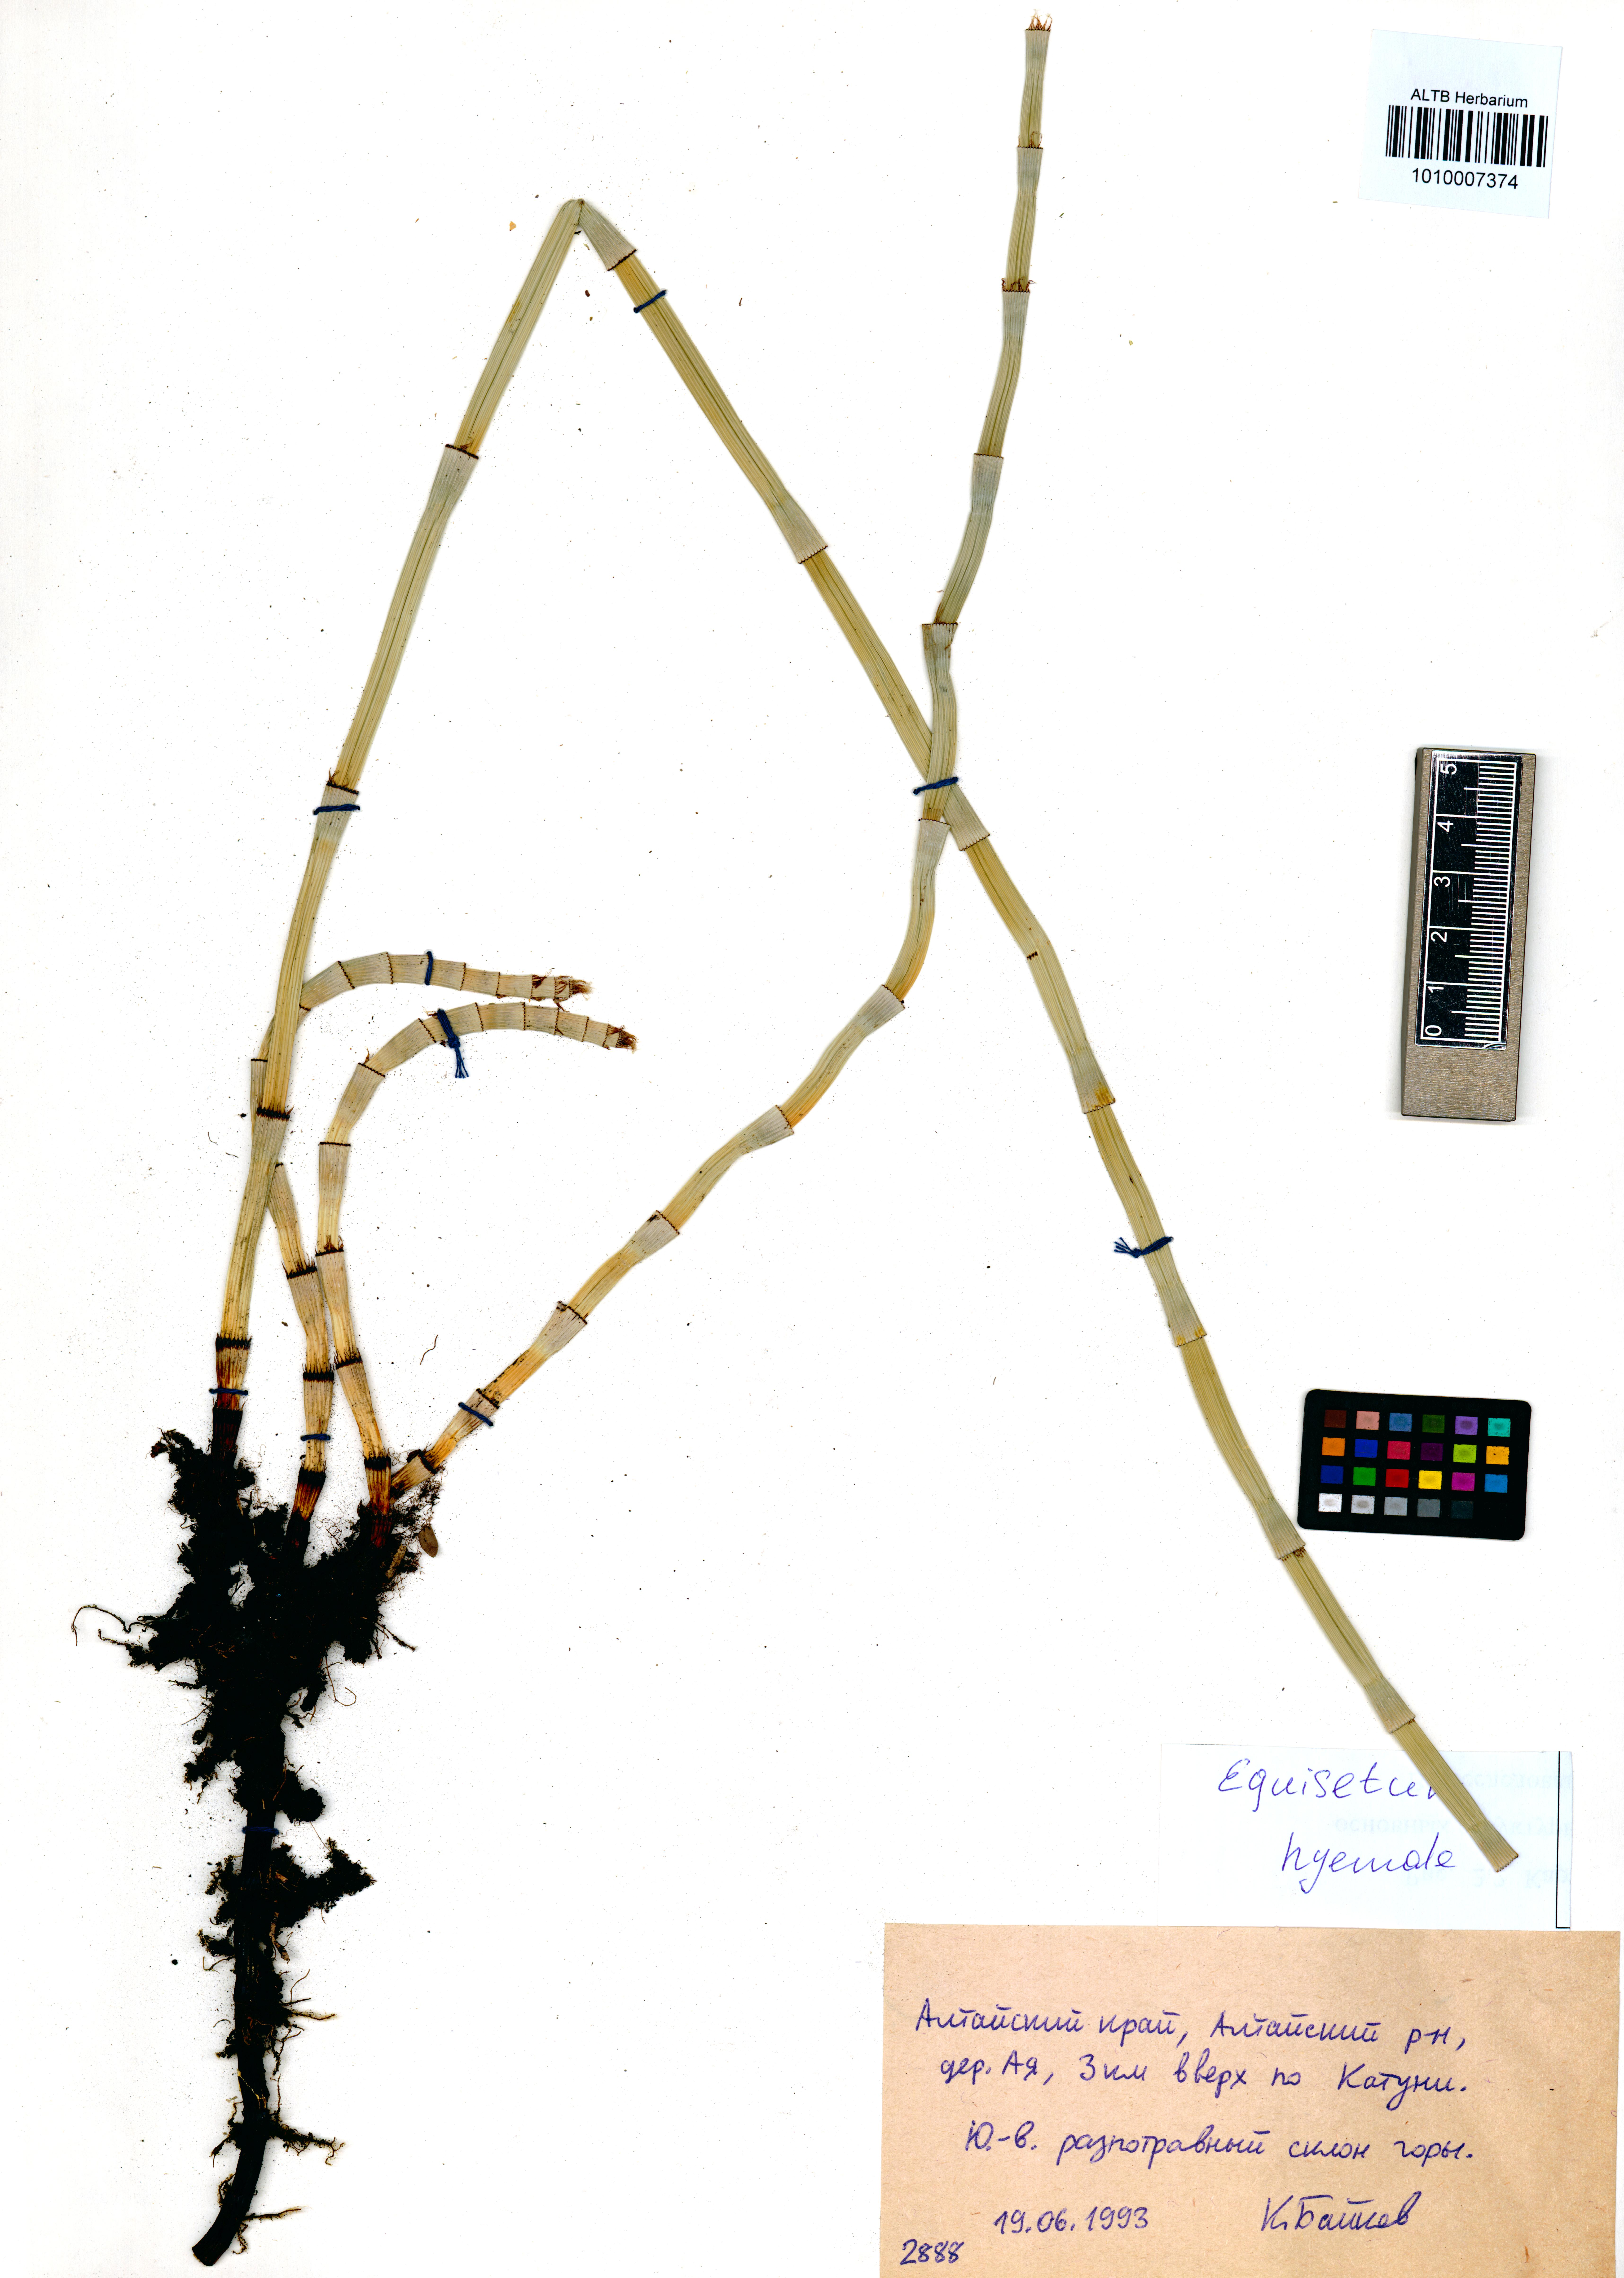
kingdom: Plantae
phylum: Tracheophyta
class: Polypodiopsida
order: Equisetales
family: Equisetaceae
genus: Equisetum
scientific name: Equisetum hyemale
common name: Rough horsetail
